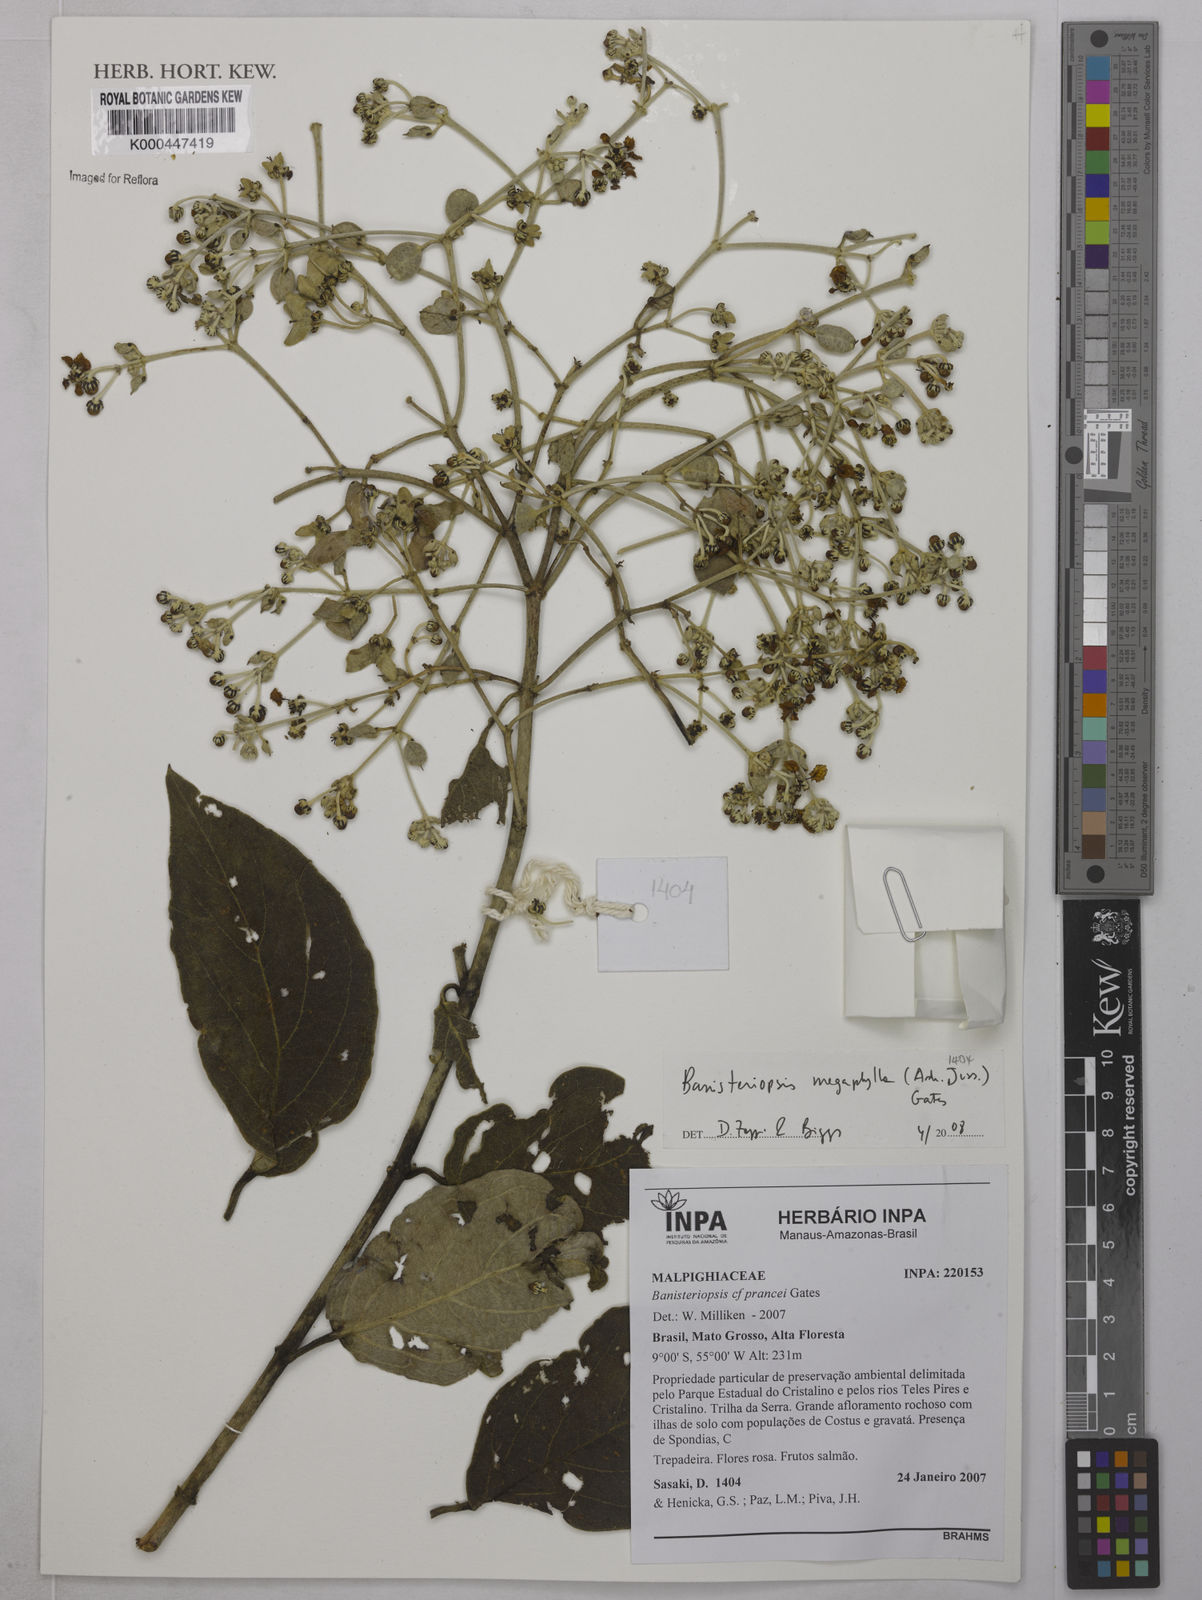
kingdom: Plantae
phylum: Tracheophyta
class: Magnoliopsida
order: Malpighiales
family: Malpighiaceae
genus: Banisteriopsis
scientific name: Banisteriopsis megaphylla
